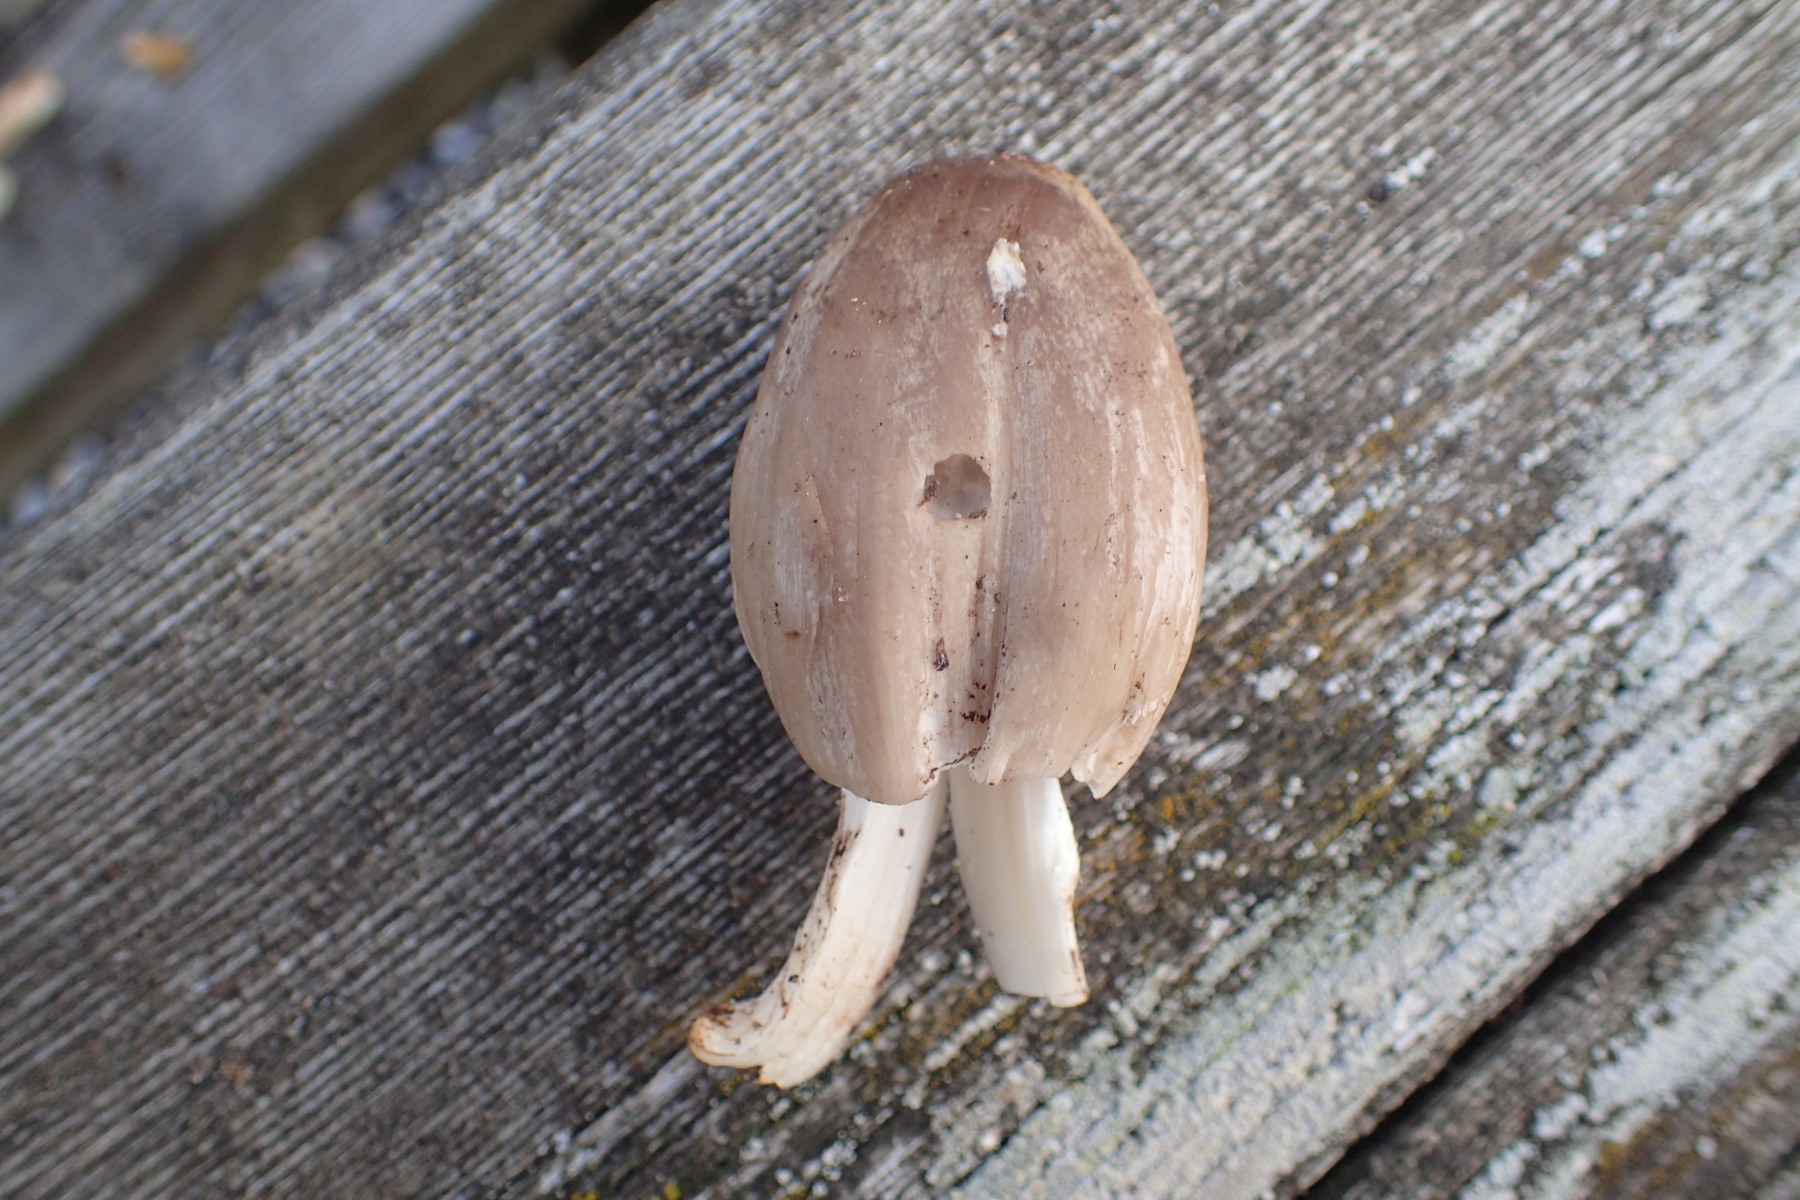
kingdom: Fungi
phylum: Basidiomycota
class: Agaricomycetes
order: Agaricales
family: Psathyrellaceae
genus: Coprinopsis
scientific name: Coprinopsis atramentaria
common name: almindelig blækhat
